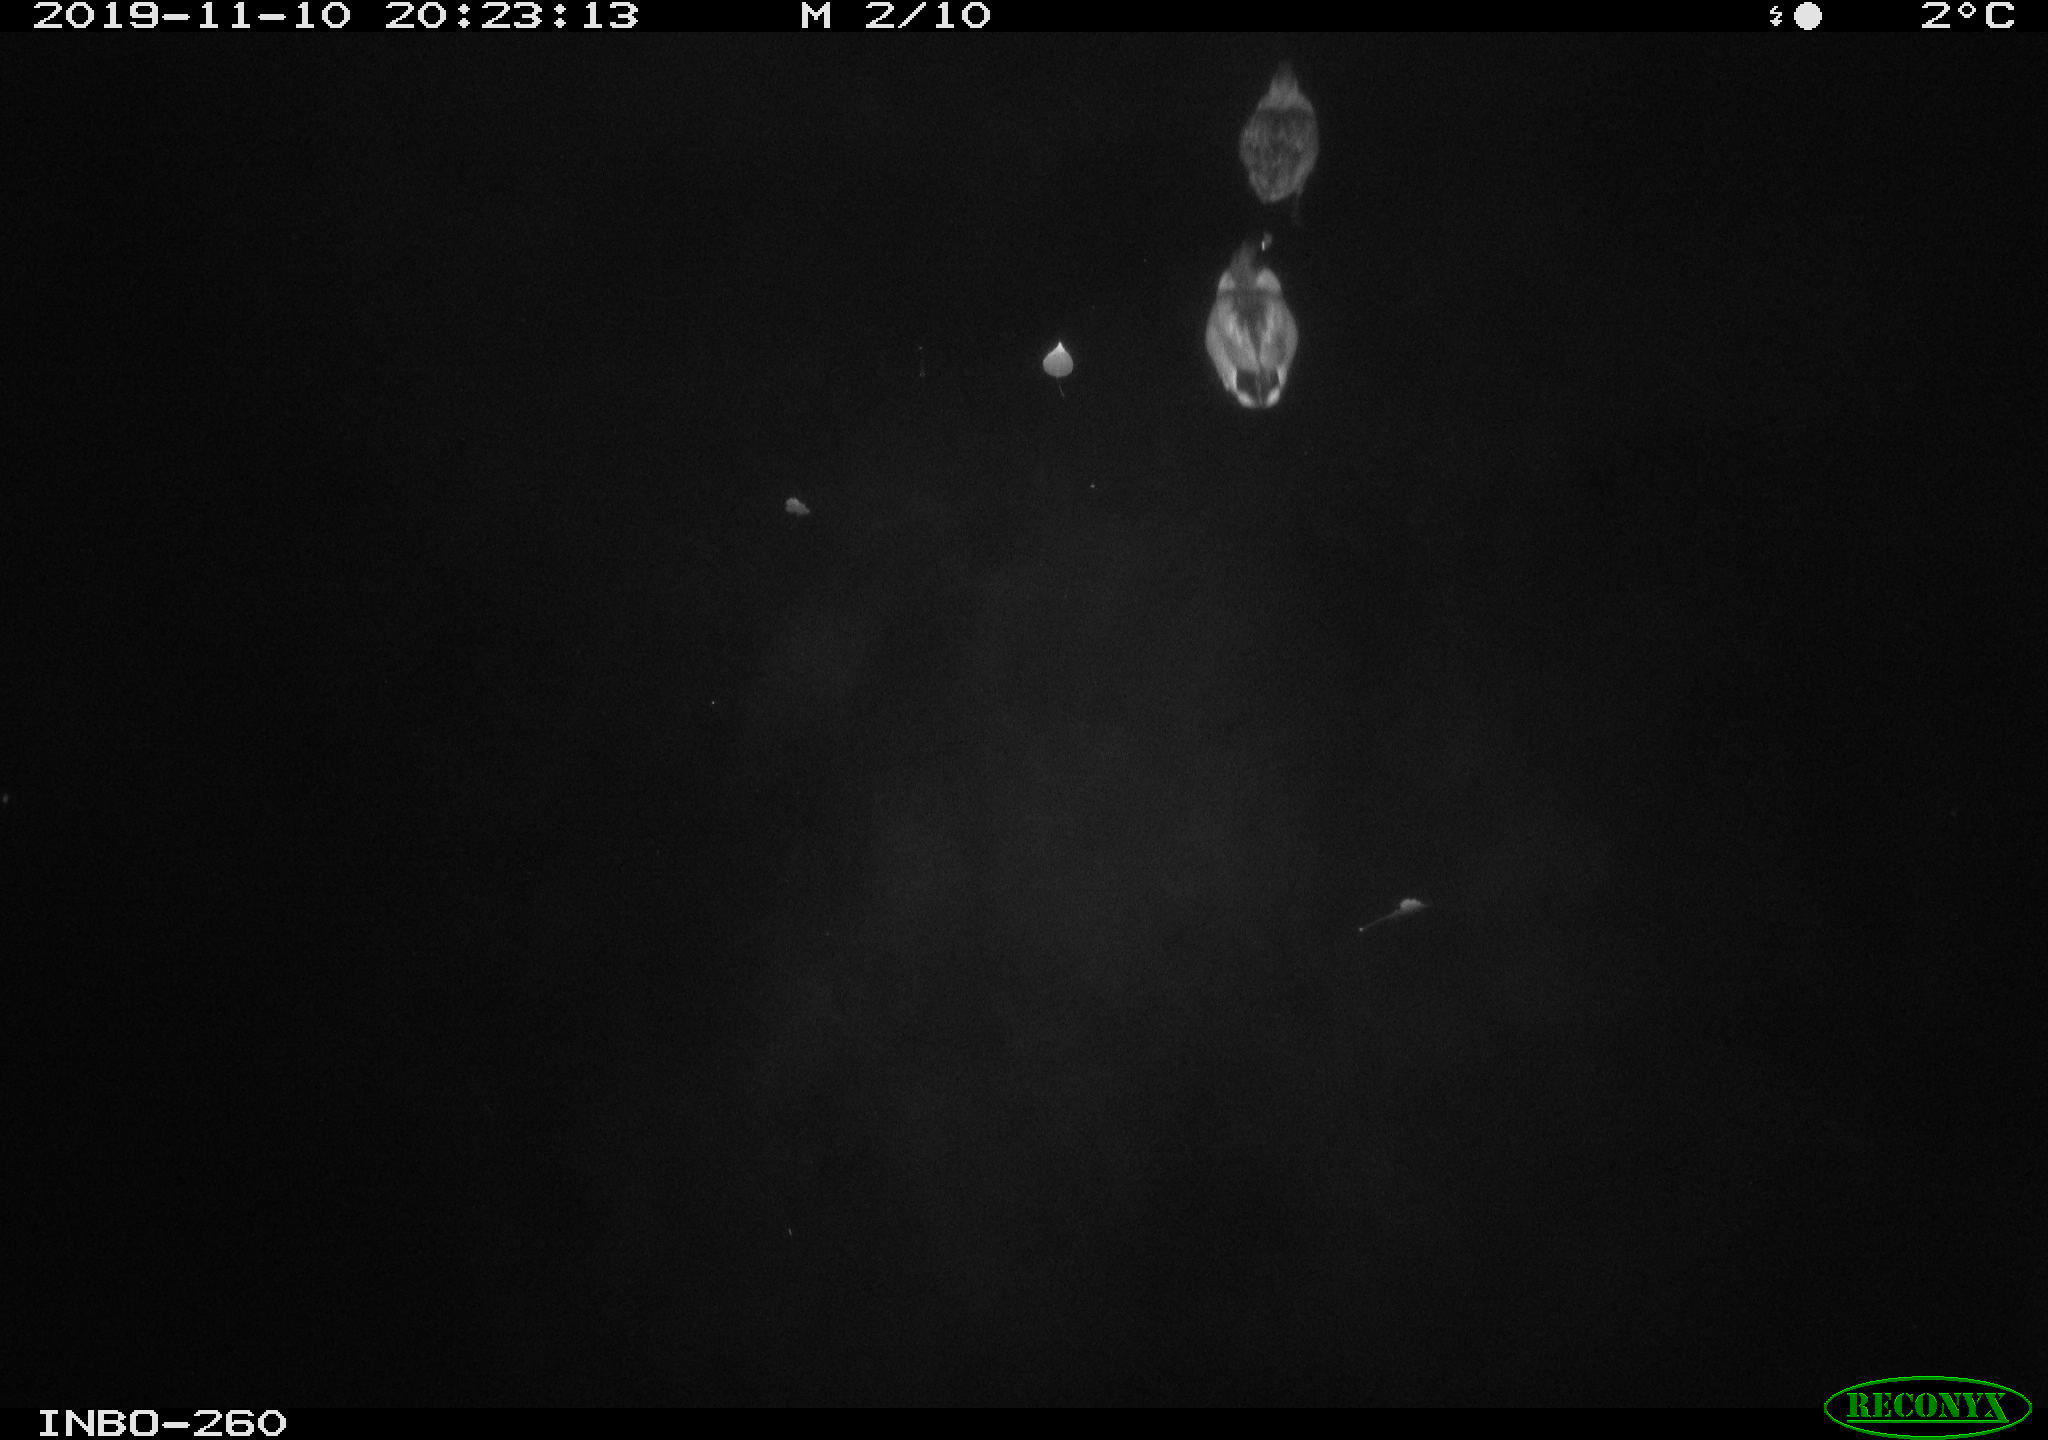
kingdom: Animalia
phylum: Chordata
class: Aves
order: Anseriformes
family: Anatidae
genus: Anas
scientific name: Anas platyrhynchos
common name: Mallard
